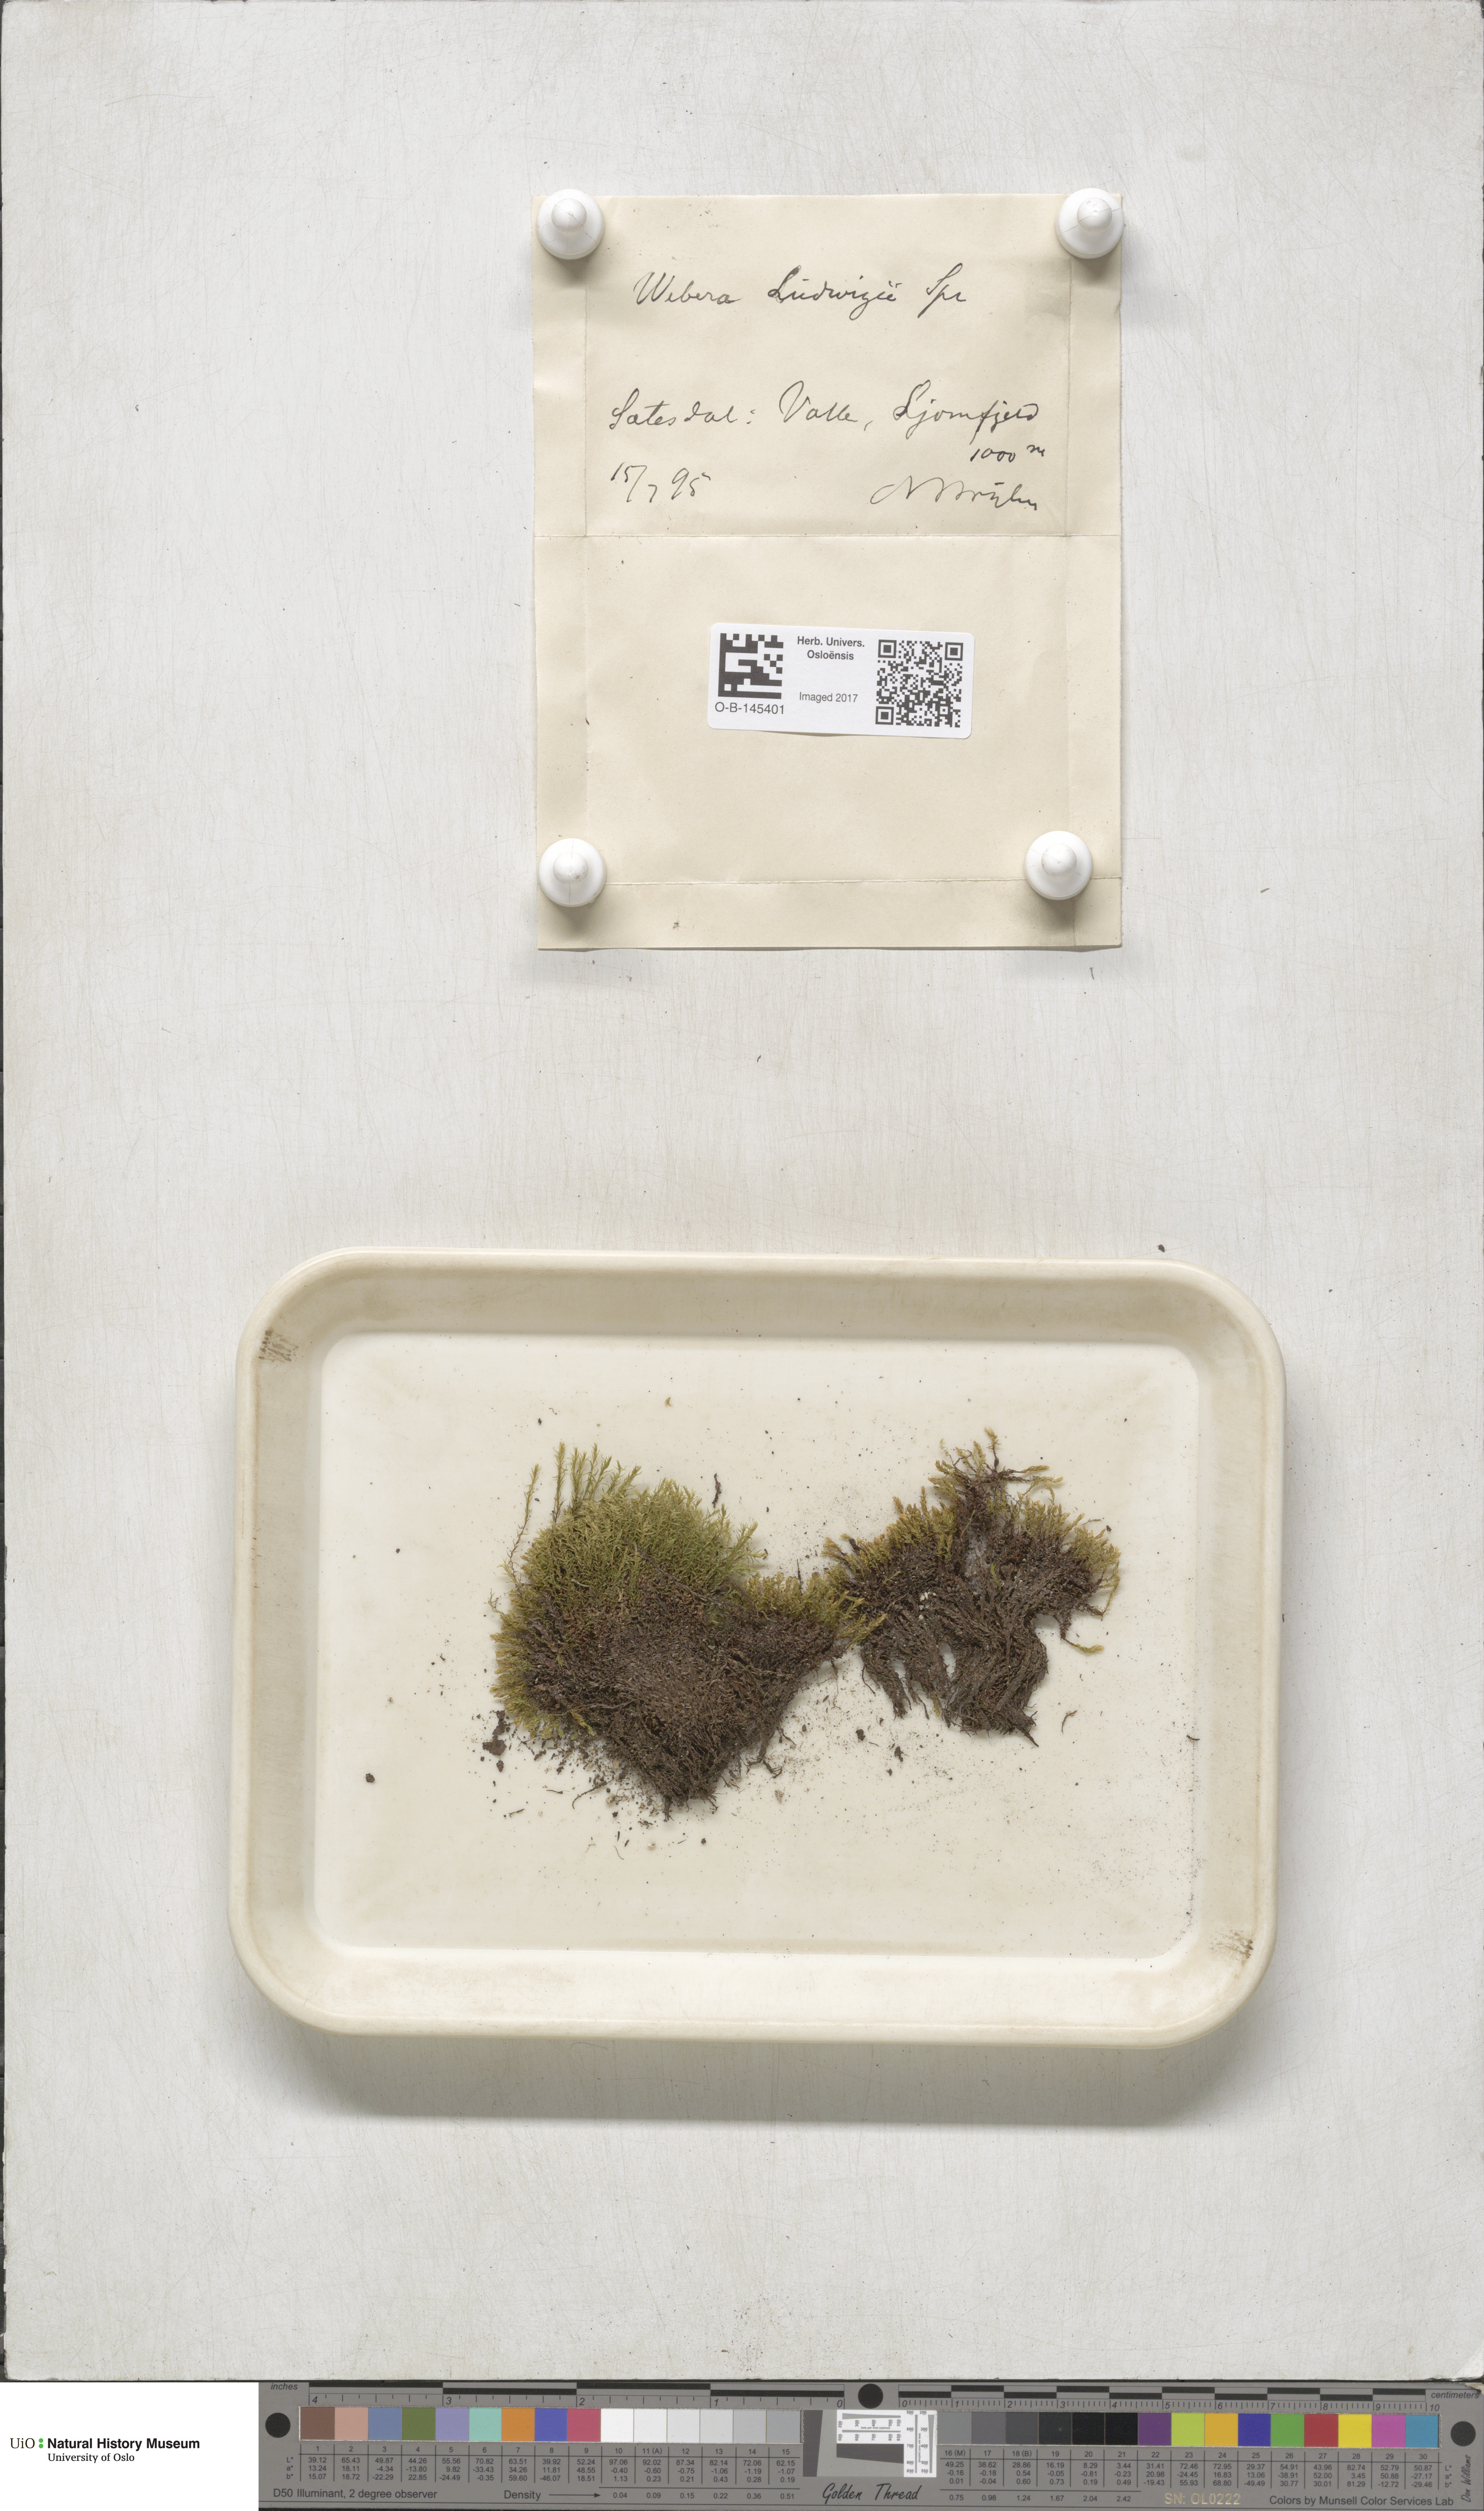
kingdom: Plantae
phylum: Bryophyta
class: Bryopsida
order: Bryales
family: Mniaceae
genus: Pohlia
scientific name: Pohlia ludwigii
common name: Ludwig's thread-moss
